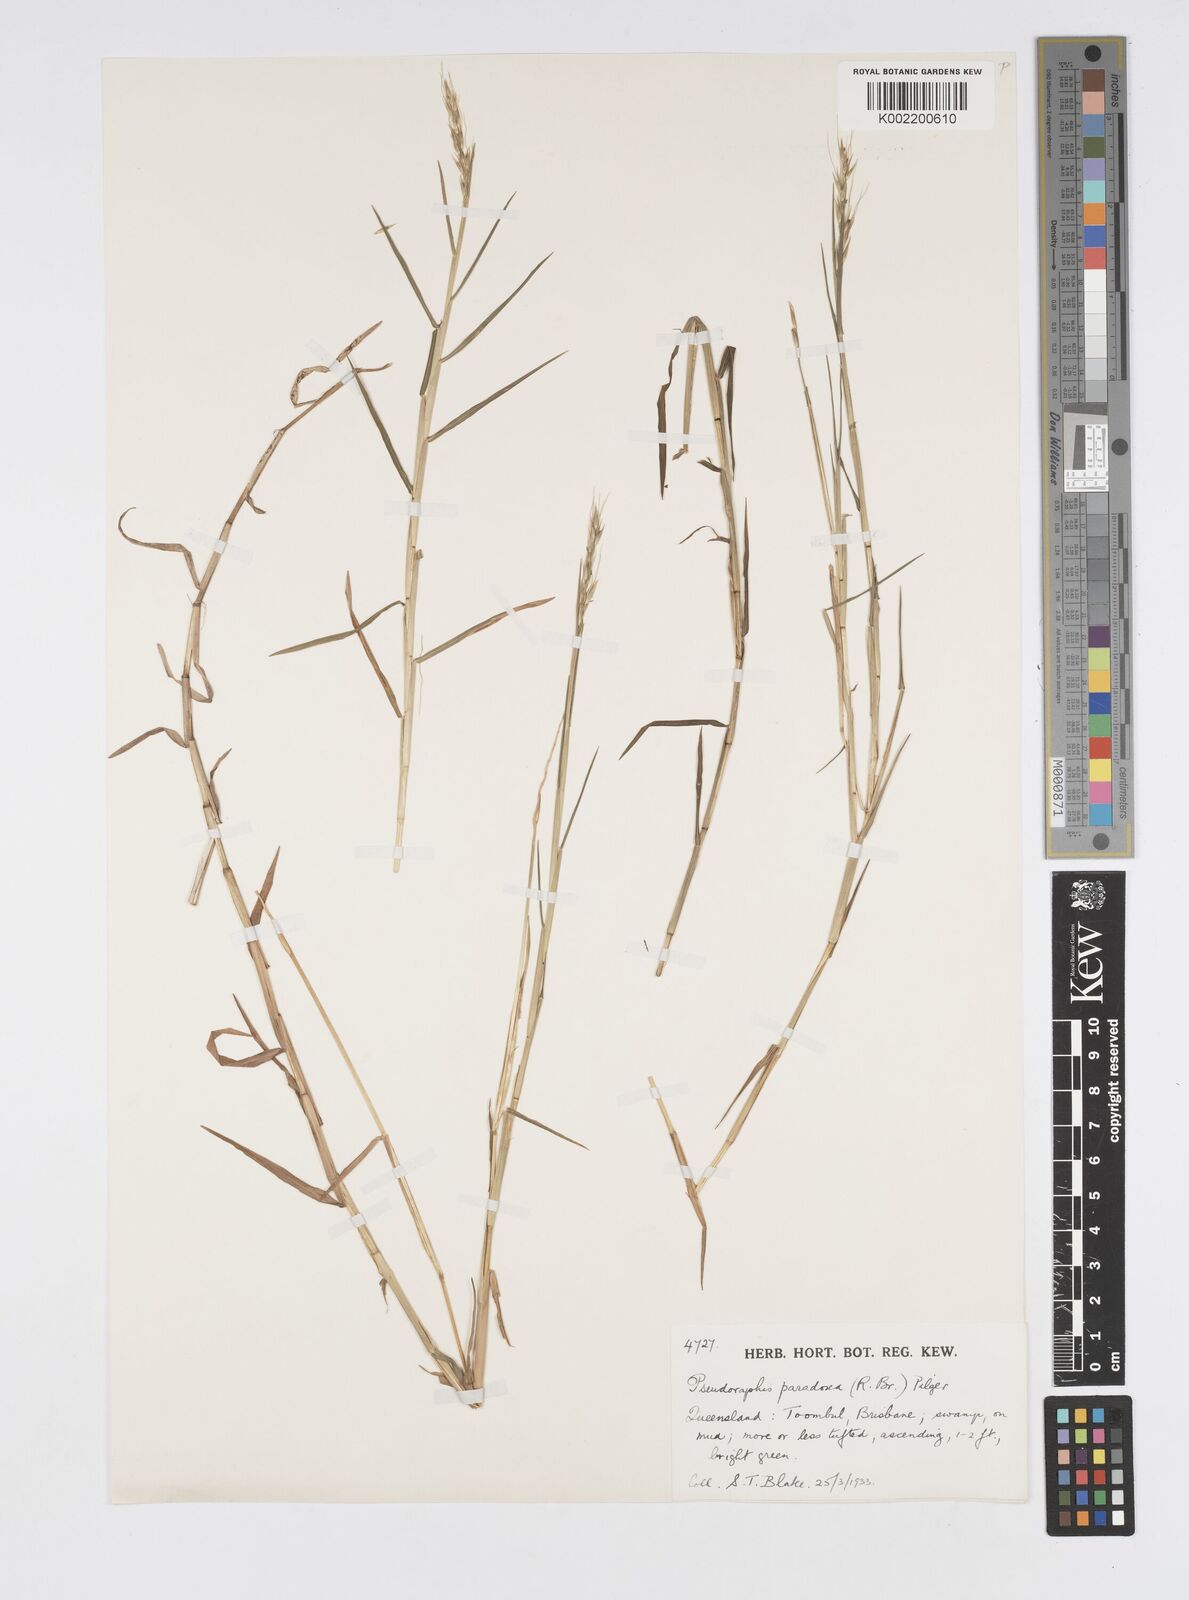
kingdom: Plantae
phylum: Tracheophyta
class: Liliopsida
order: Poales
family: Poaceae
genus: Pseudoraphis
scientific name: Pseudoraphis paradoxa
